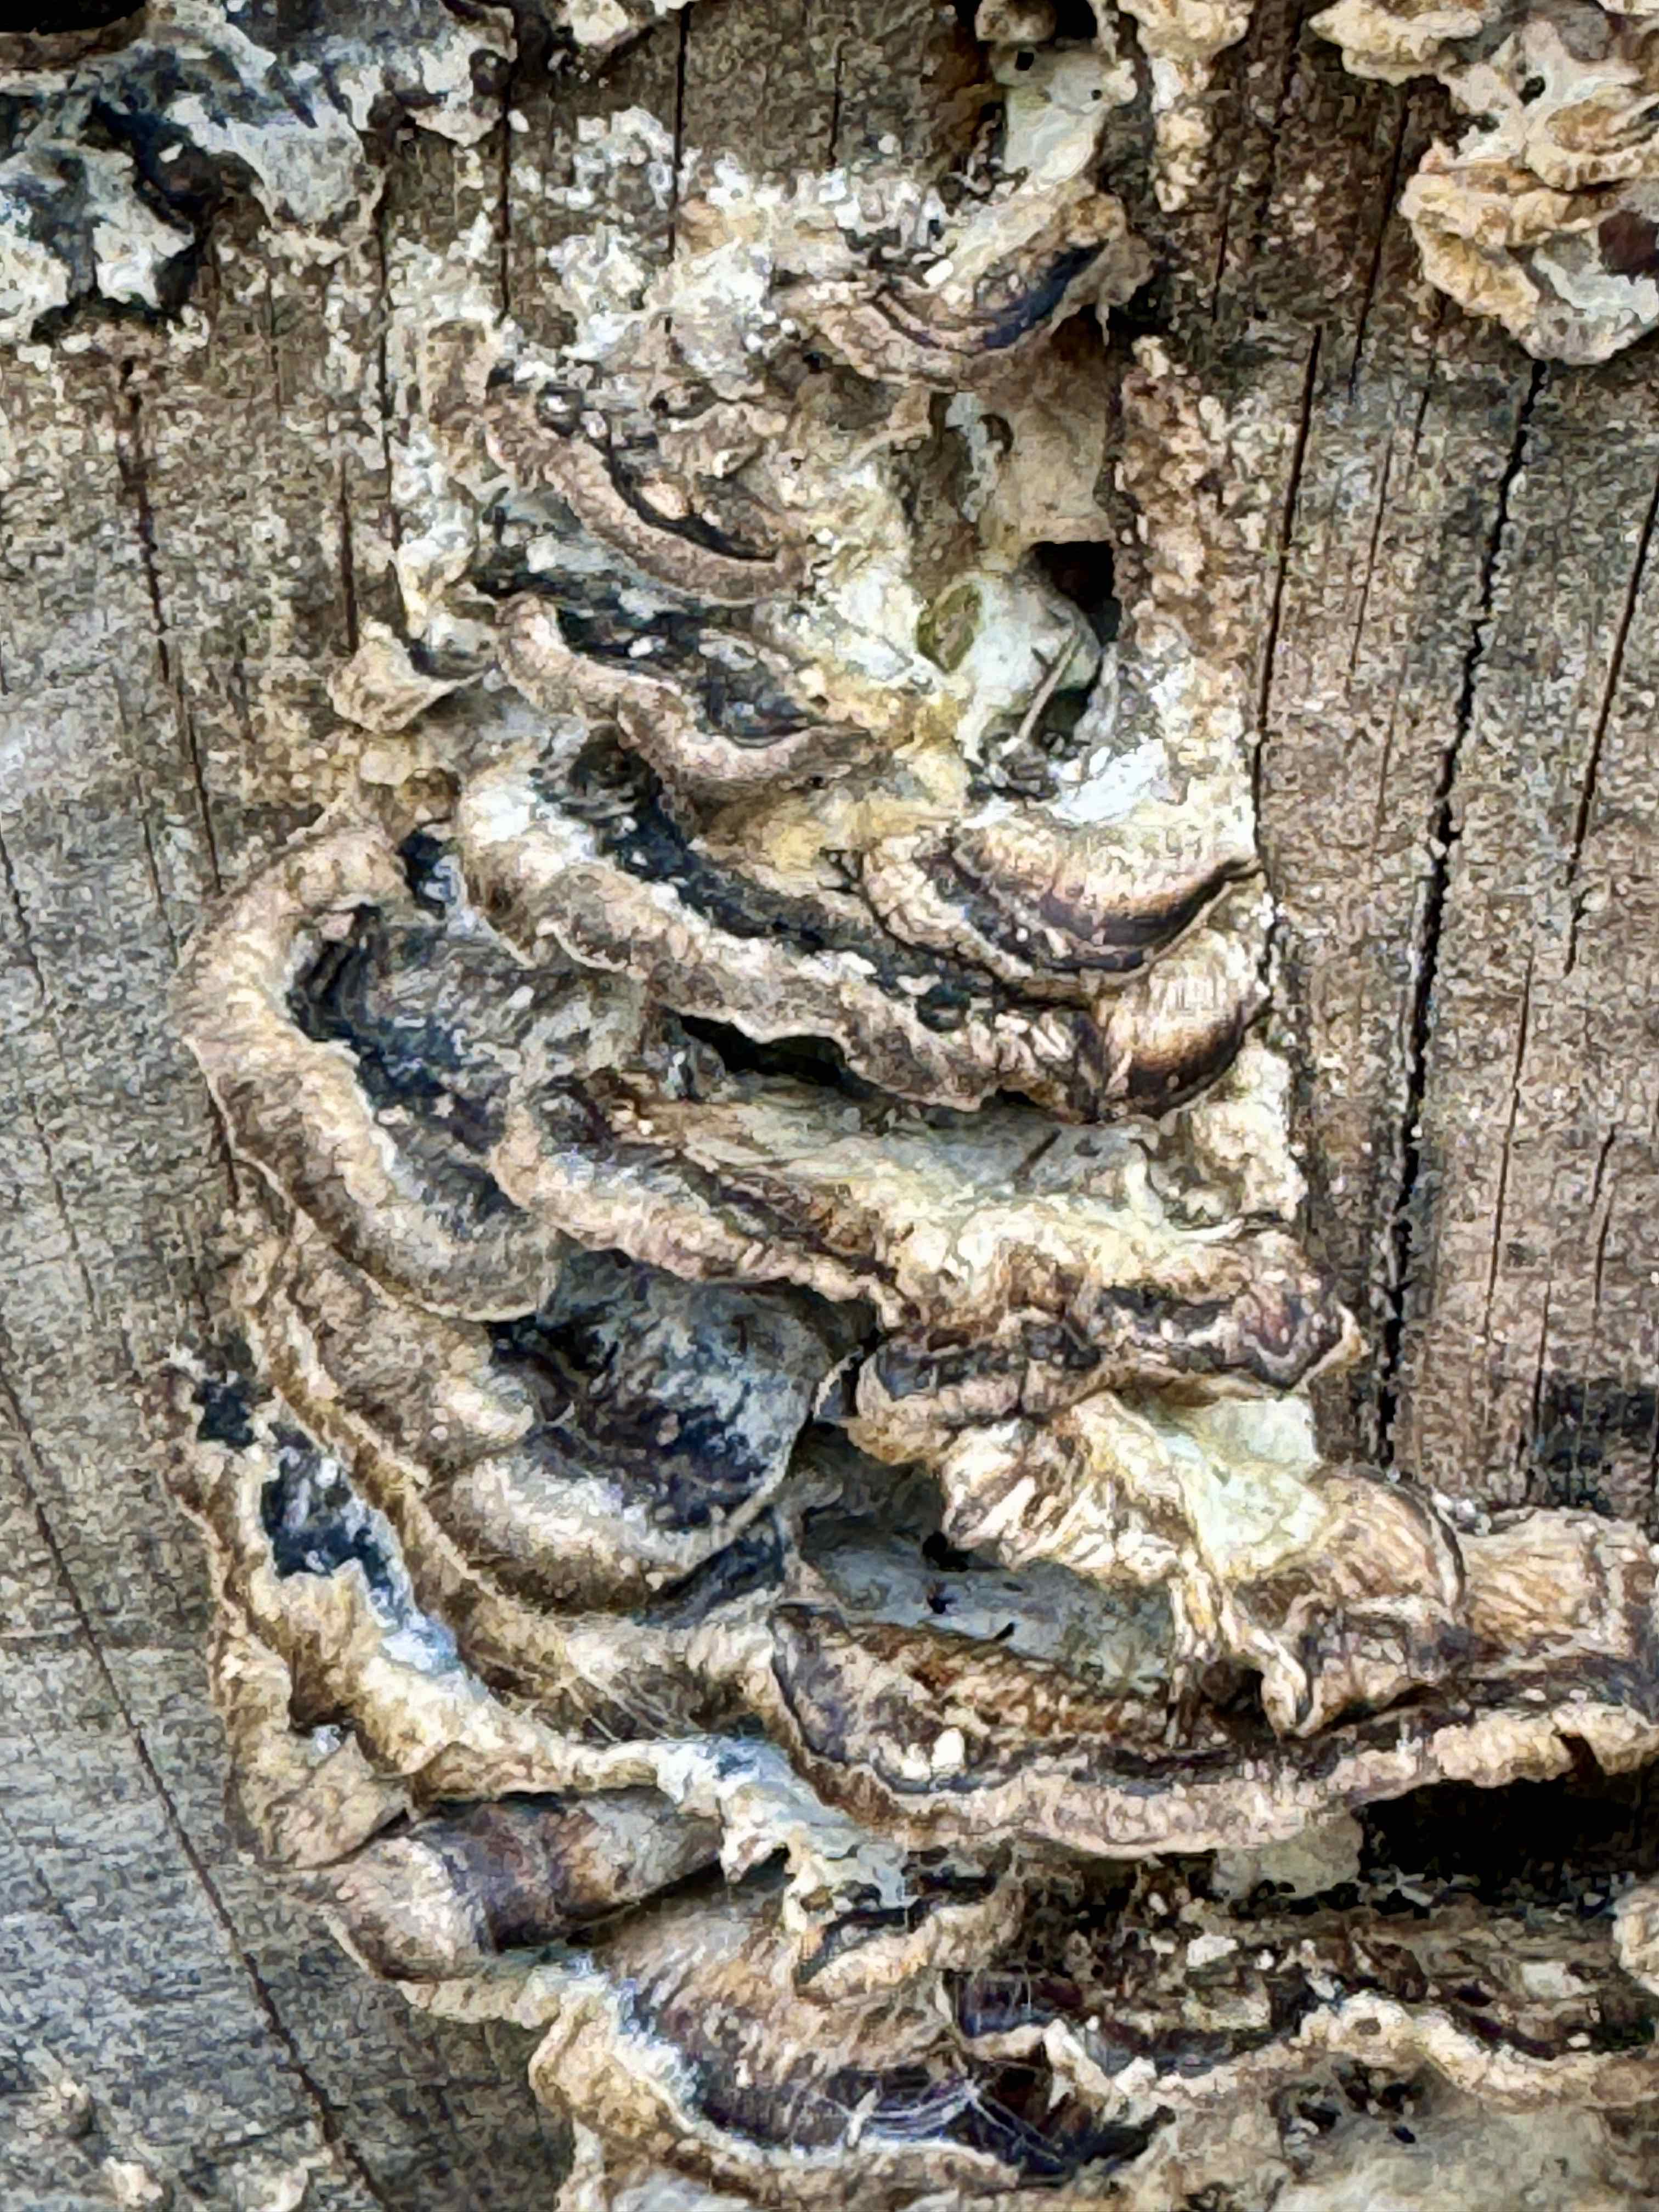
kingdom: Fungi
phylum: Basidiomycota
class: Agaricomycetes
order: Polyporales
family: Phanerochaetaceae
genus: Bjerkandera
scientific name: Bjerkandera adusta
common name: sveden sodporesvamp
